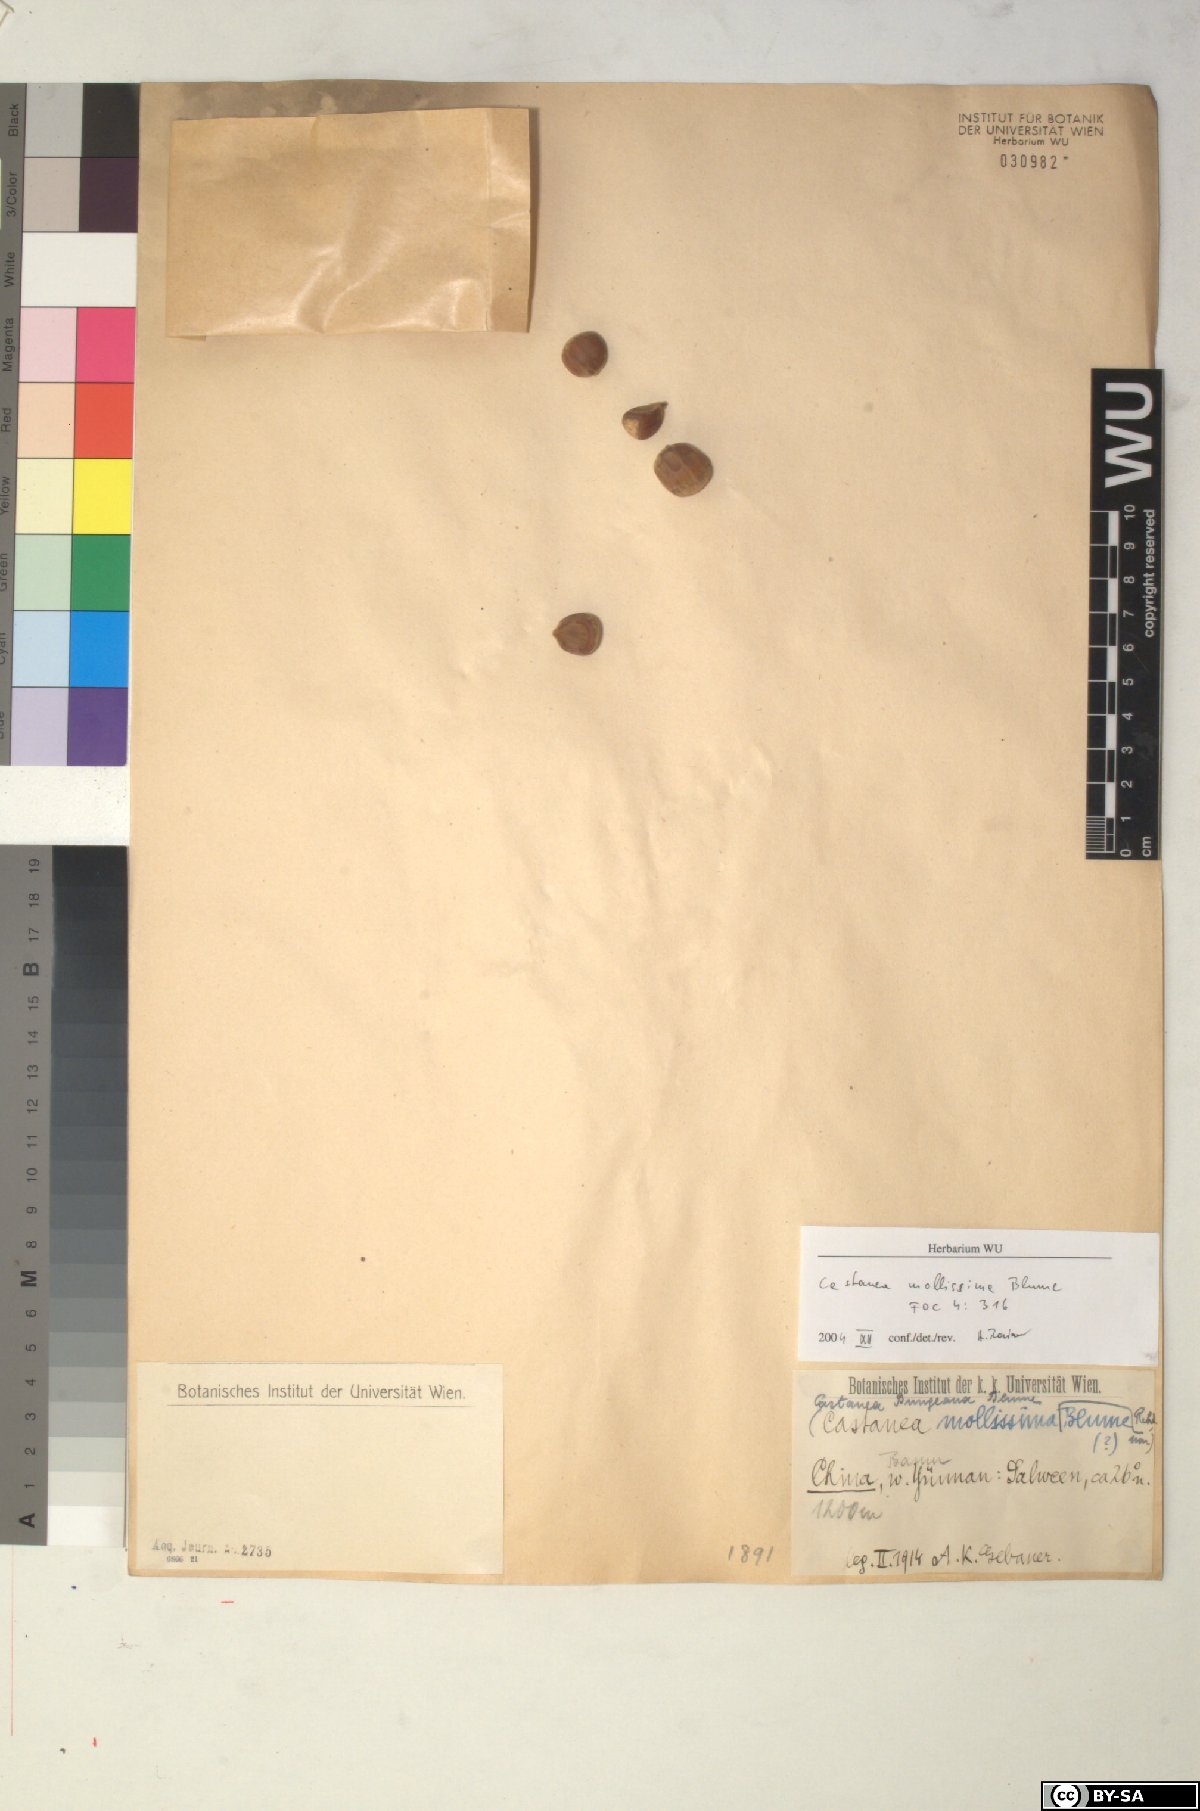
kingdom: Plantae
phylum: Tracheophyta
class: Magnoliopsida
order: Fagales
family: Fagaceae
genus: Castanea
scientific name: Castanea mollissima
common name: Chinese chestnut
